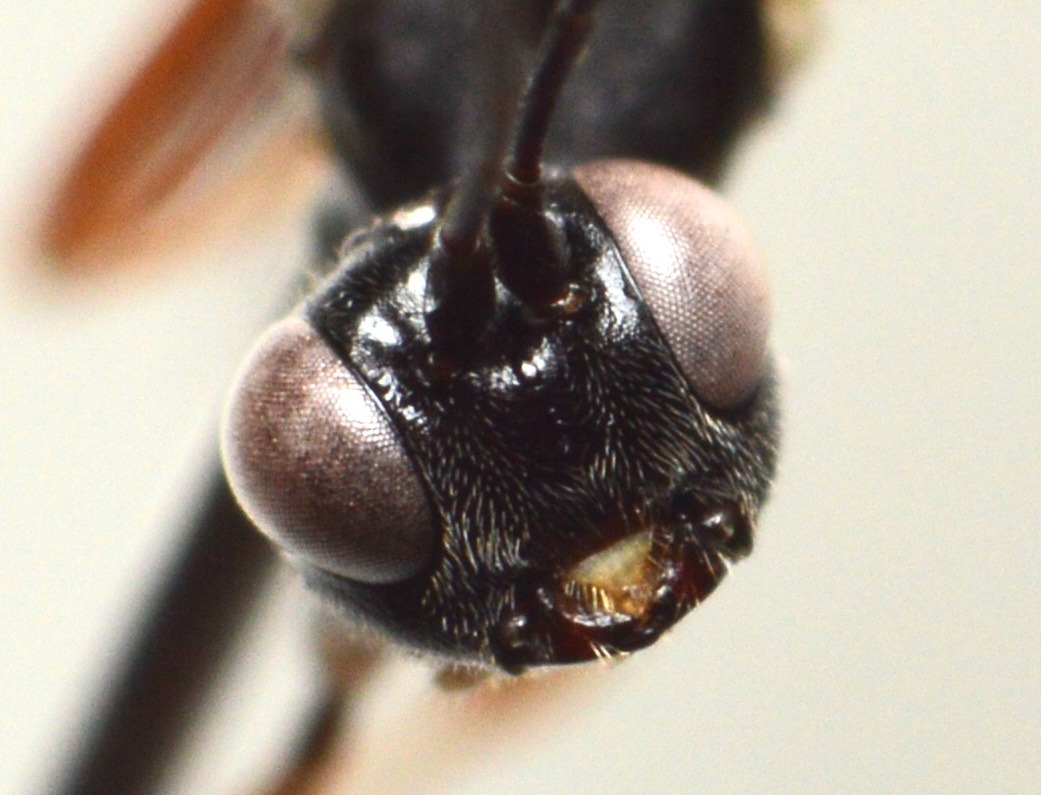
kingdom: Animalia
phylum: Arthropoda
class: Insecta
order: Hymenoptera
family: Ichneumonidae
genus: Helcostizus
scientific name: Helcostizus restaurator
